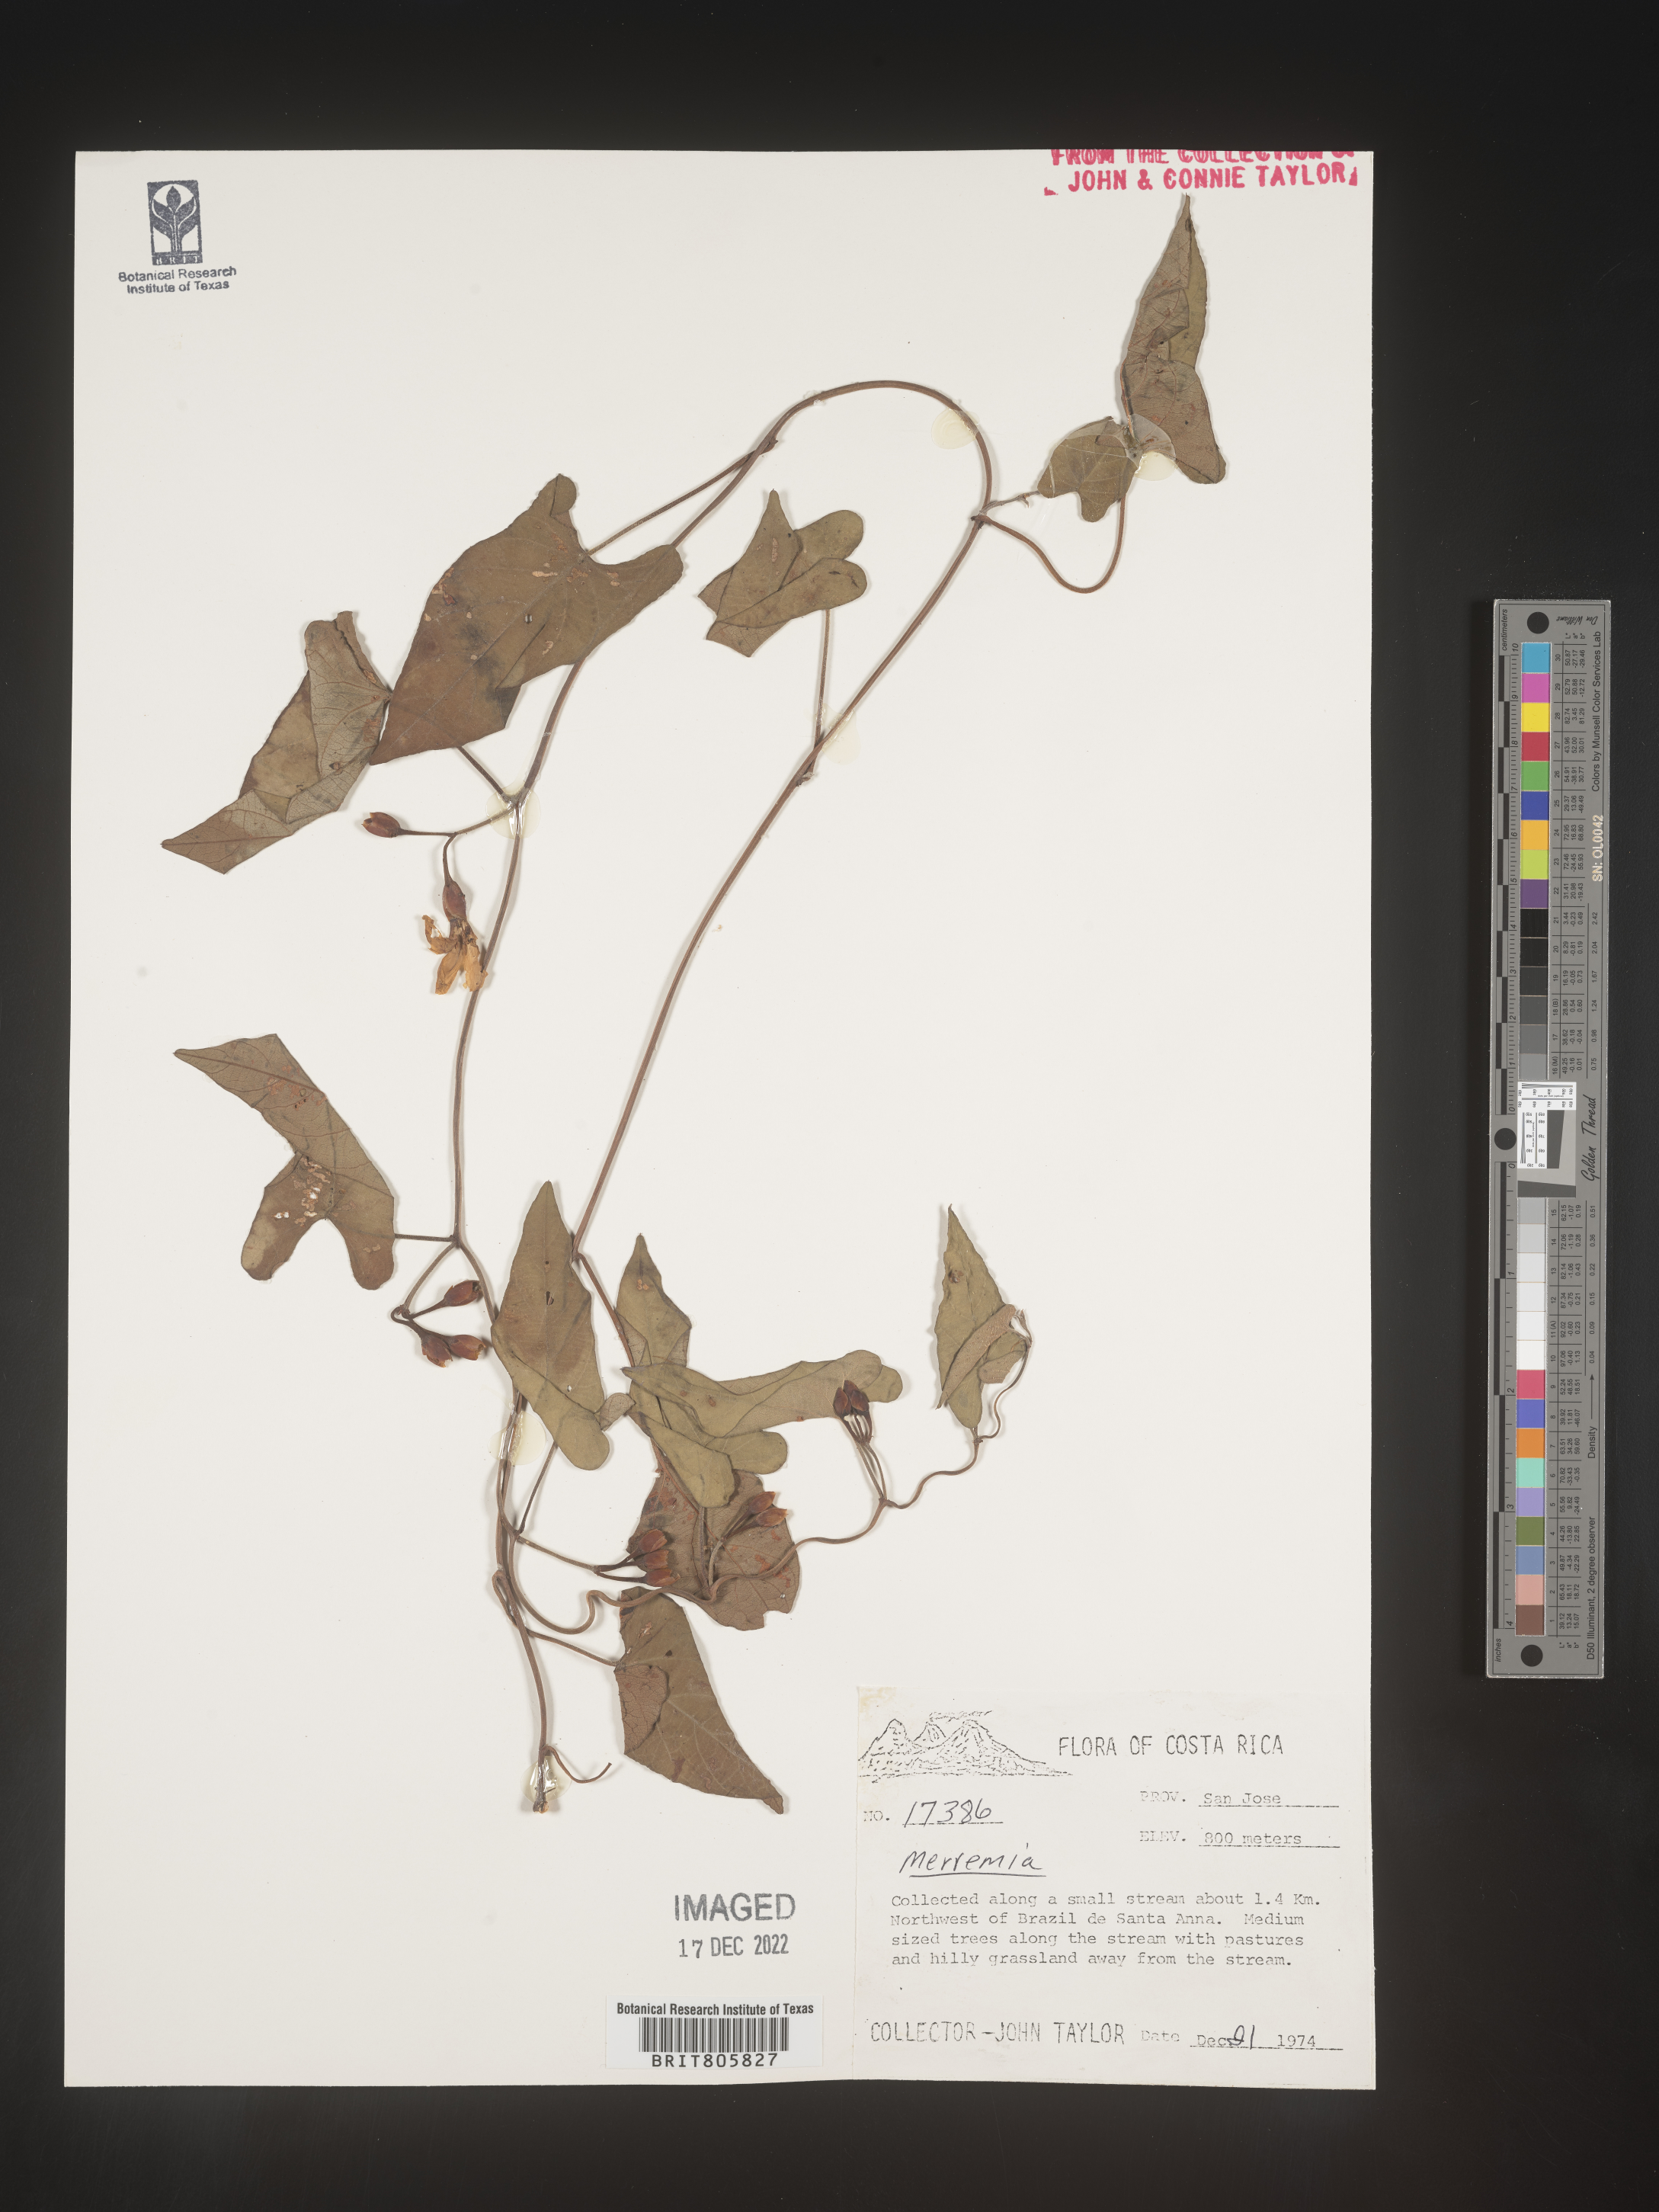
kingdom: Plantae
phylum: Tracheophyta
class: Magnoliopsida
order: Solanales
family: Convolvulaceae
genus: Merremia
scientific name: Merremia
